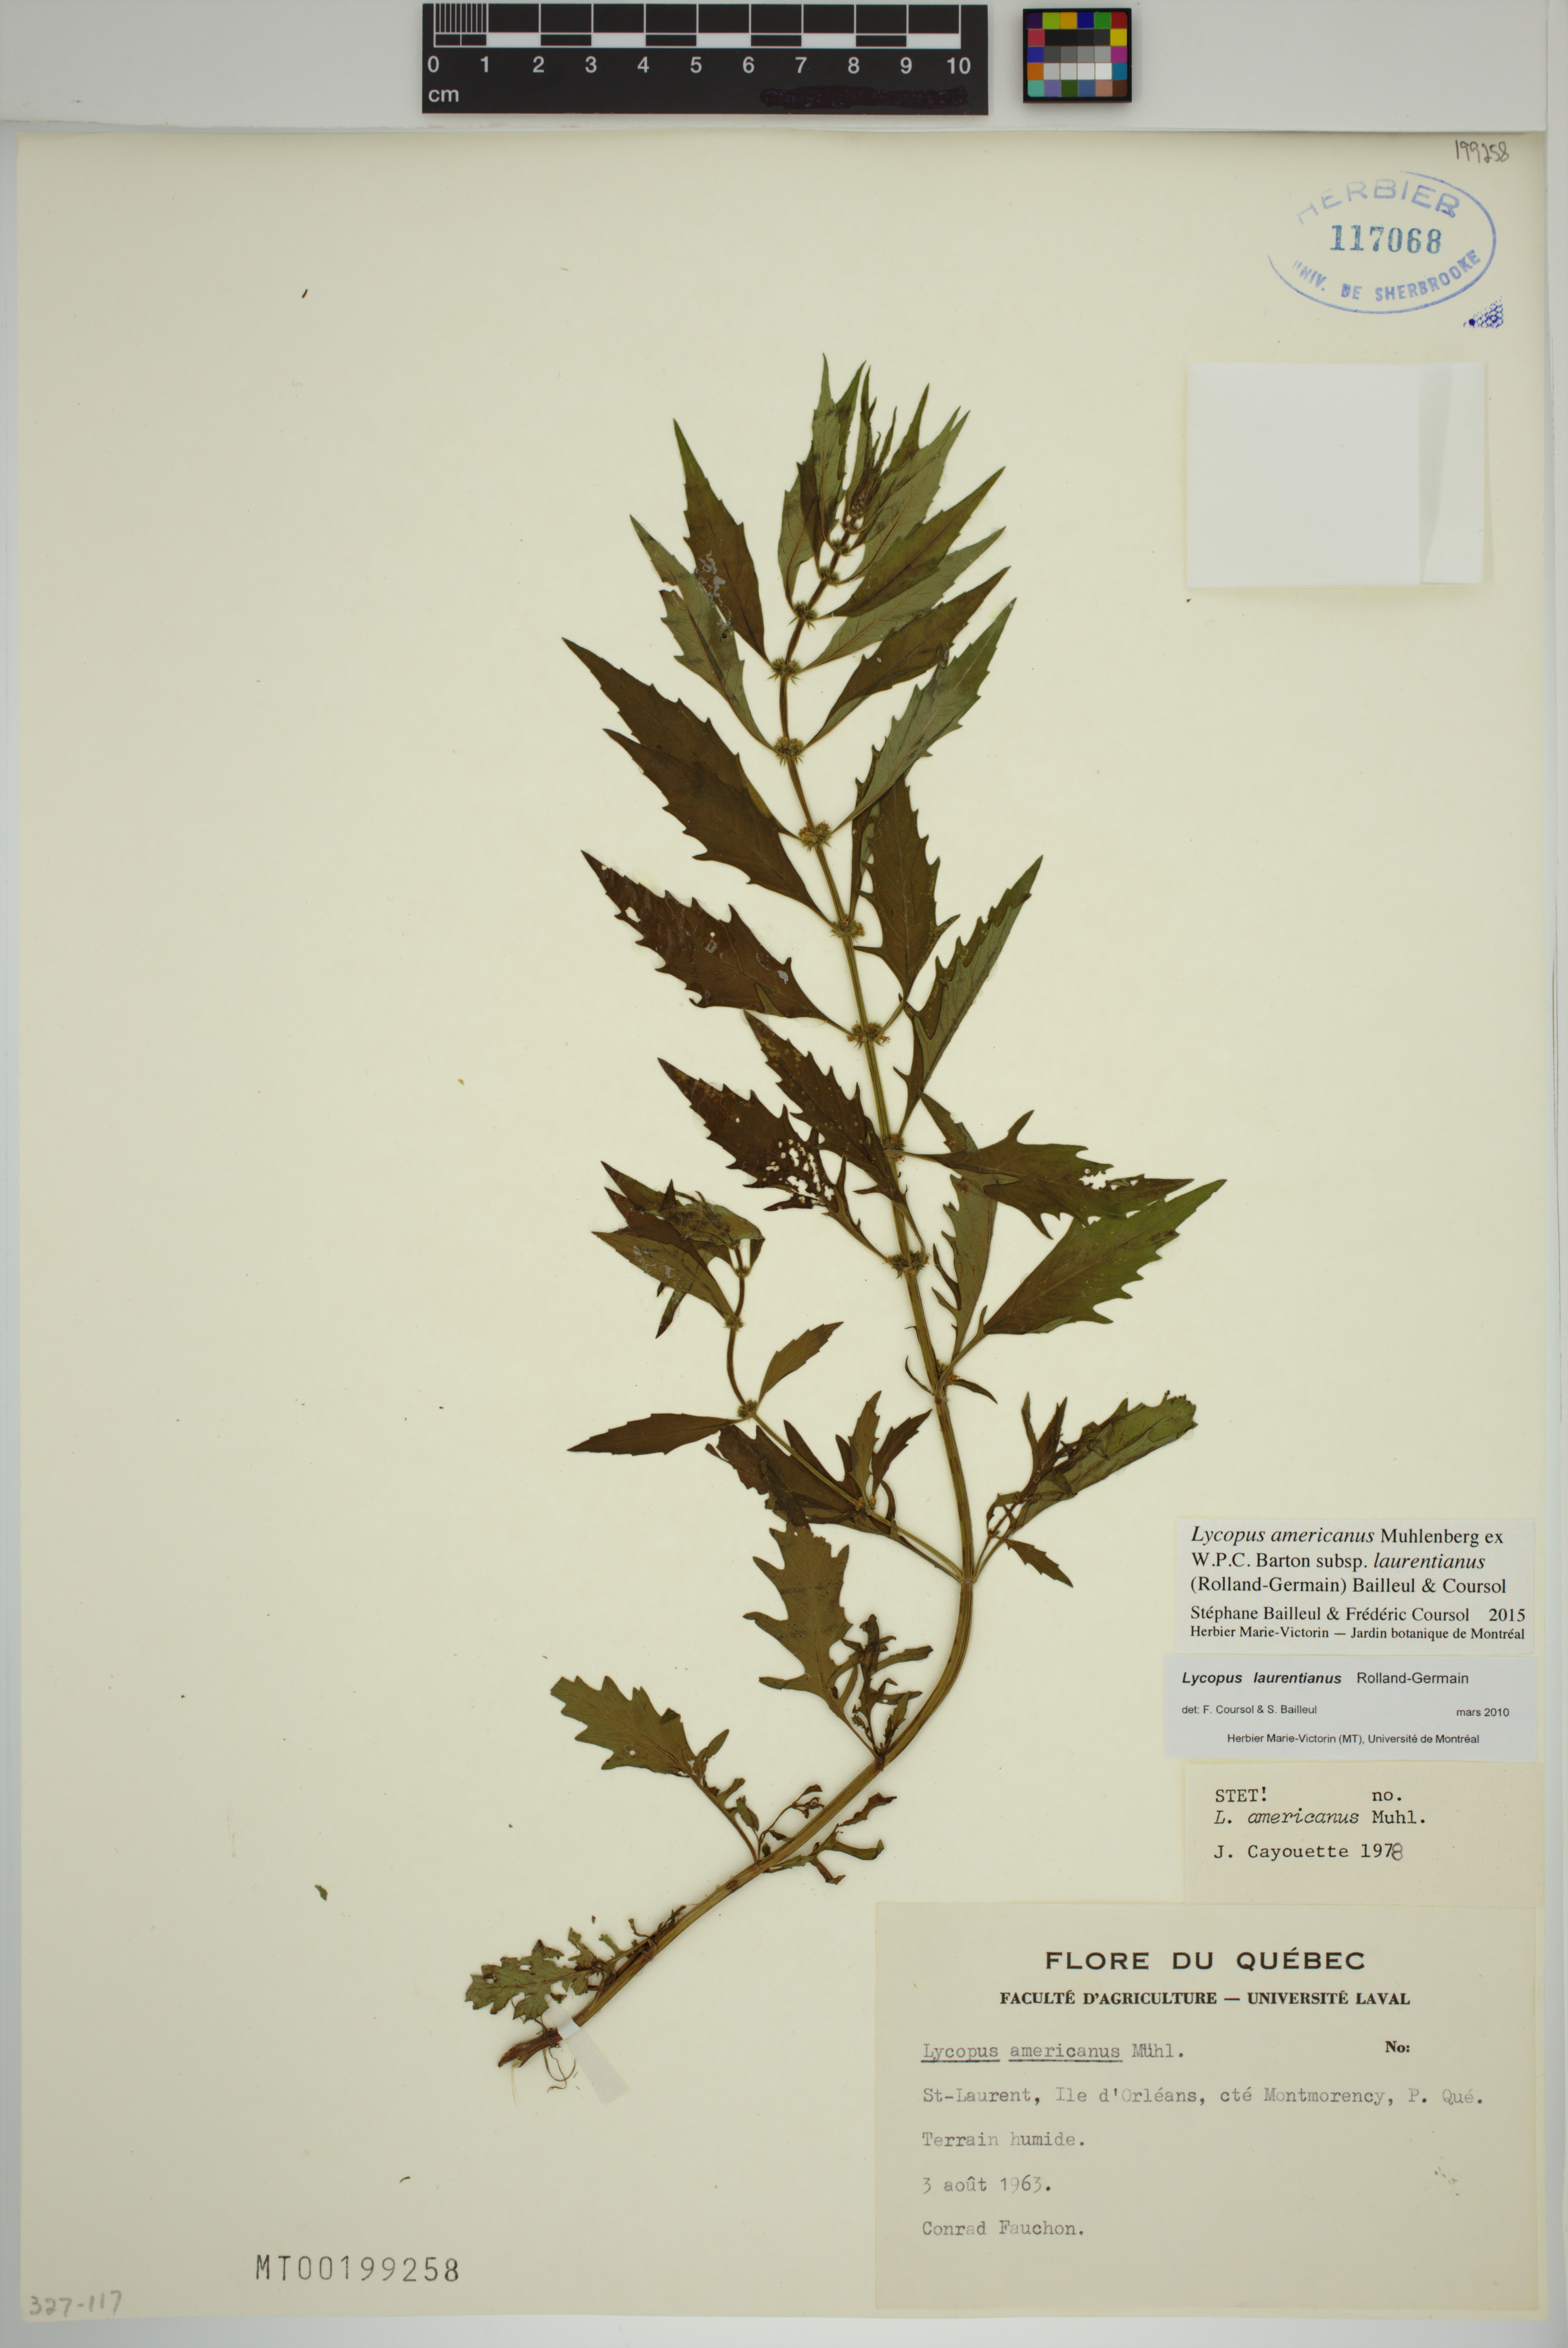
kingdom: Plantae
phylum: Tracheophyta
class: Magnoliopsida
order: Lamiales
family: Lamiaceae
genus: Lycopus
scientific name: Lycopus americanus
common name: American bugleweed
